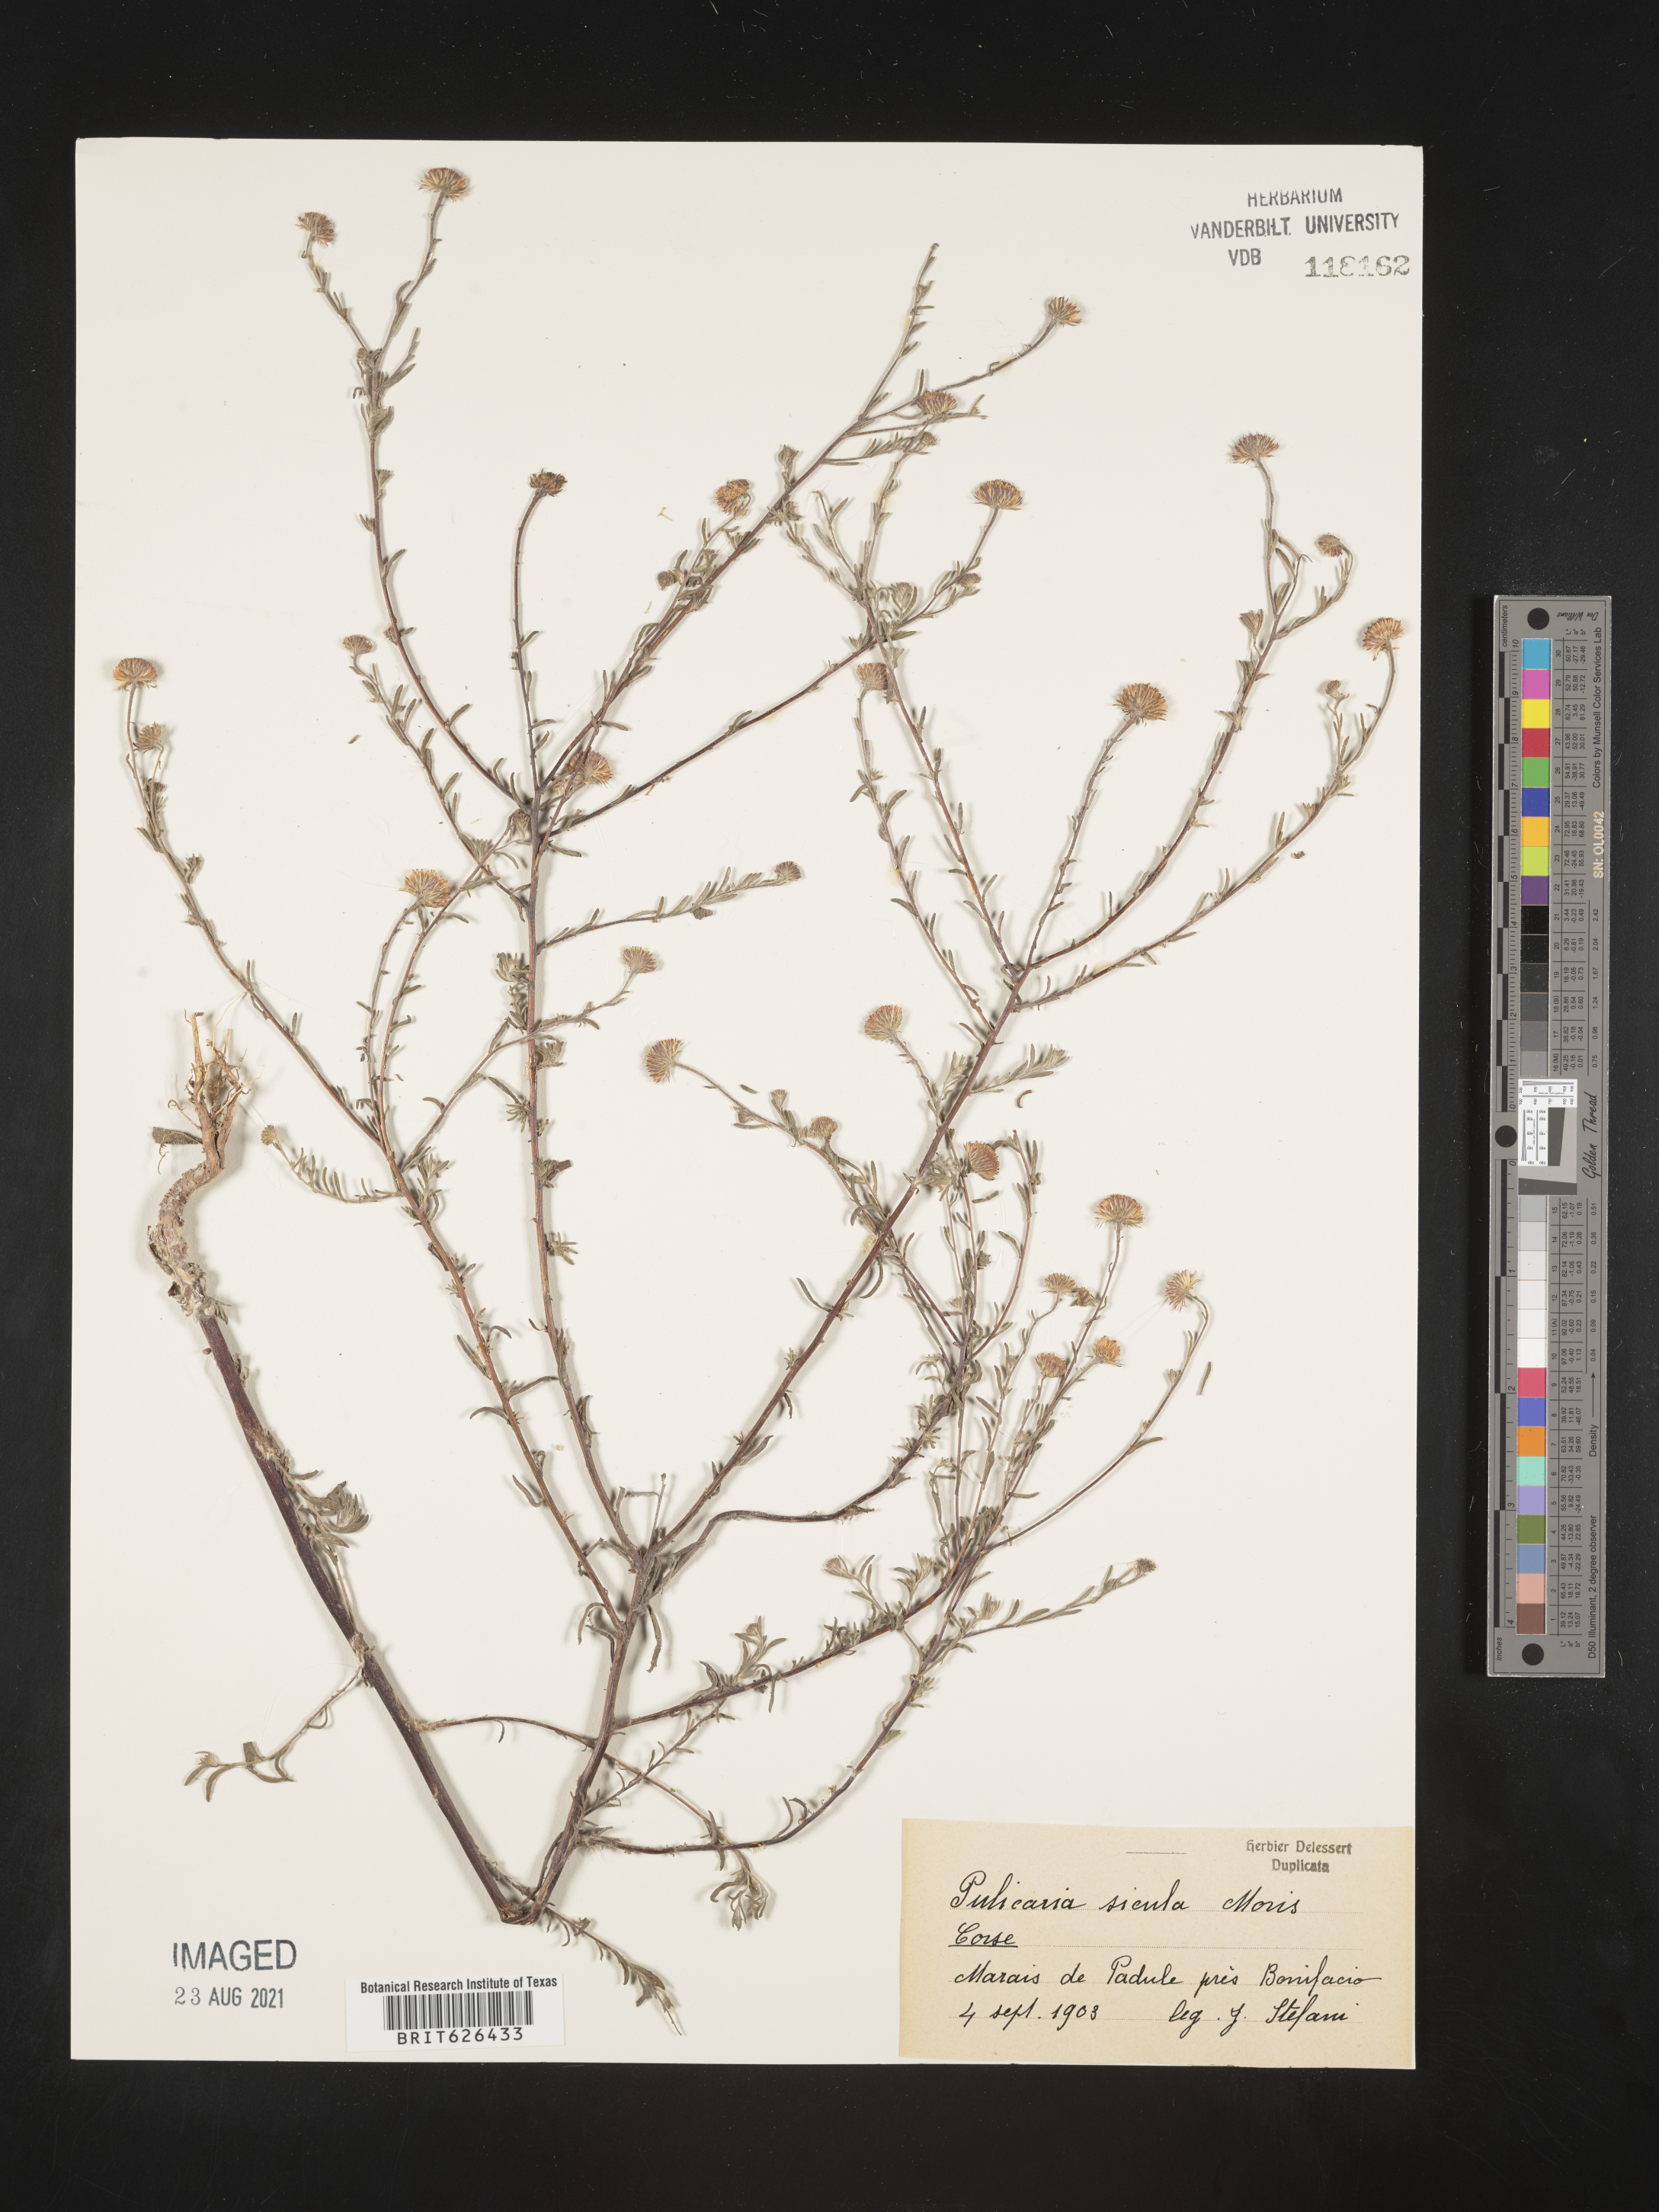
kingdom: Plantae
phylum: Tracheophyta
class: Magnoliopsida
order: Asterales
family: Asteraceae
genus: Pulicaria
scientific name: Pulicaria sicula
